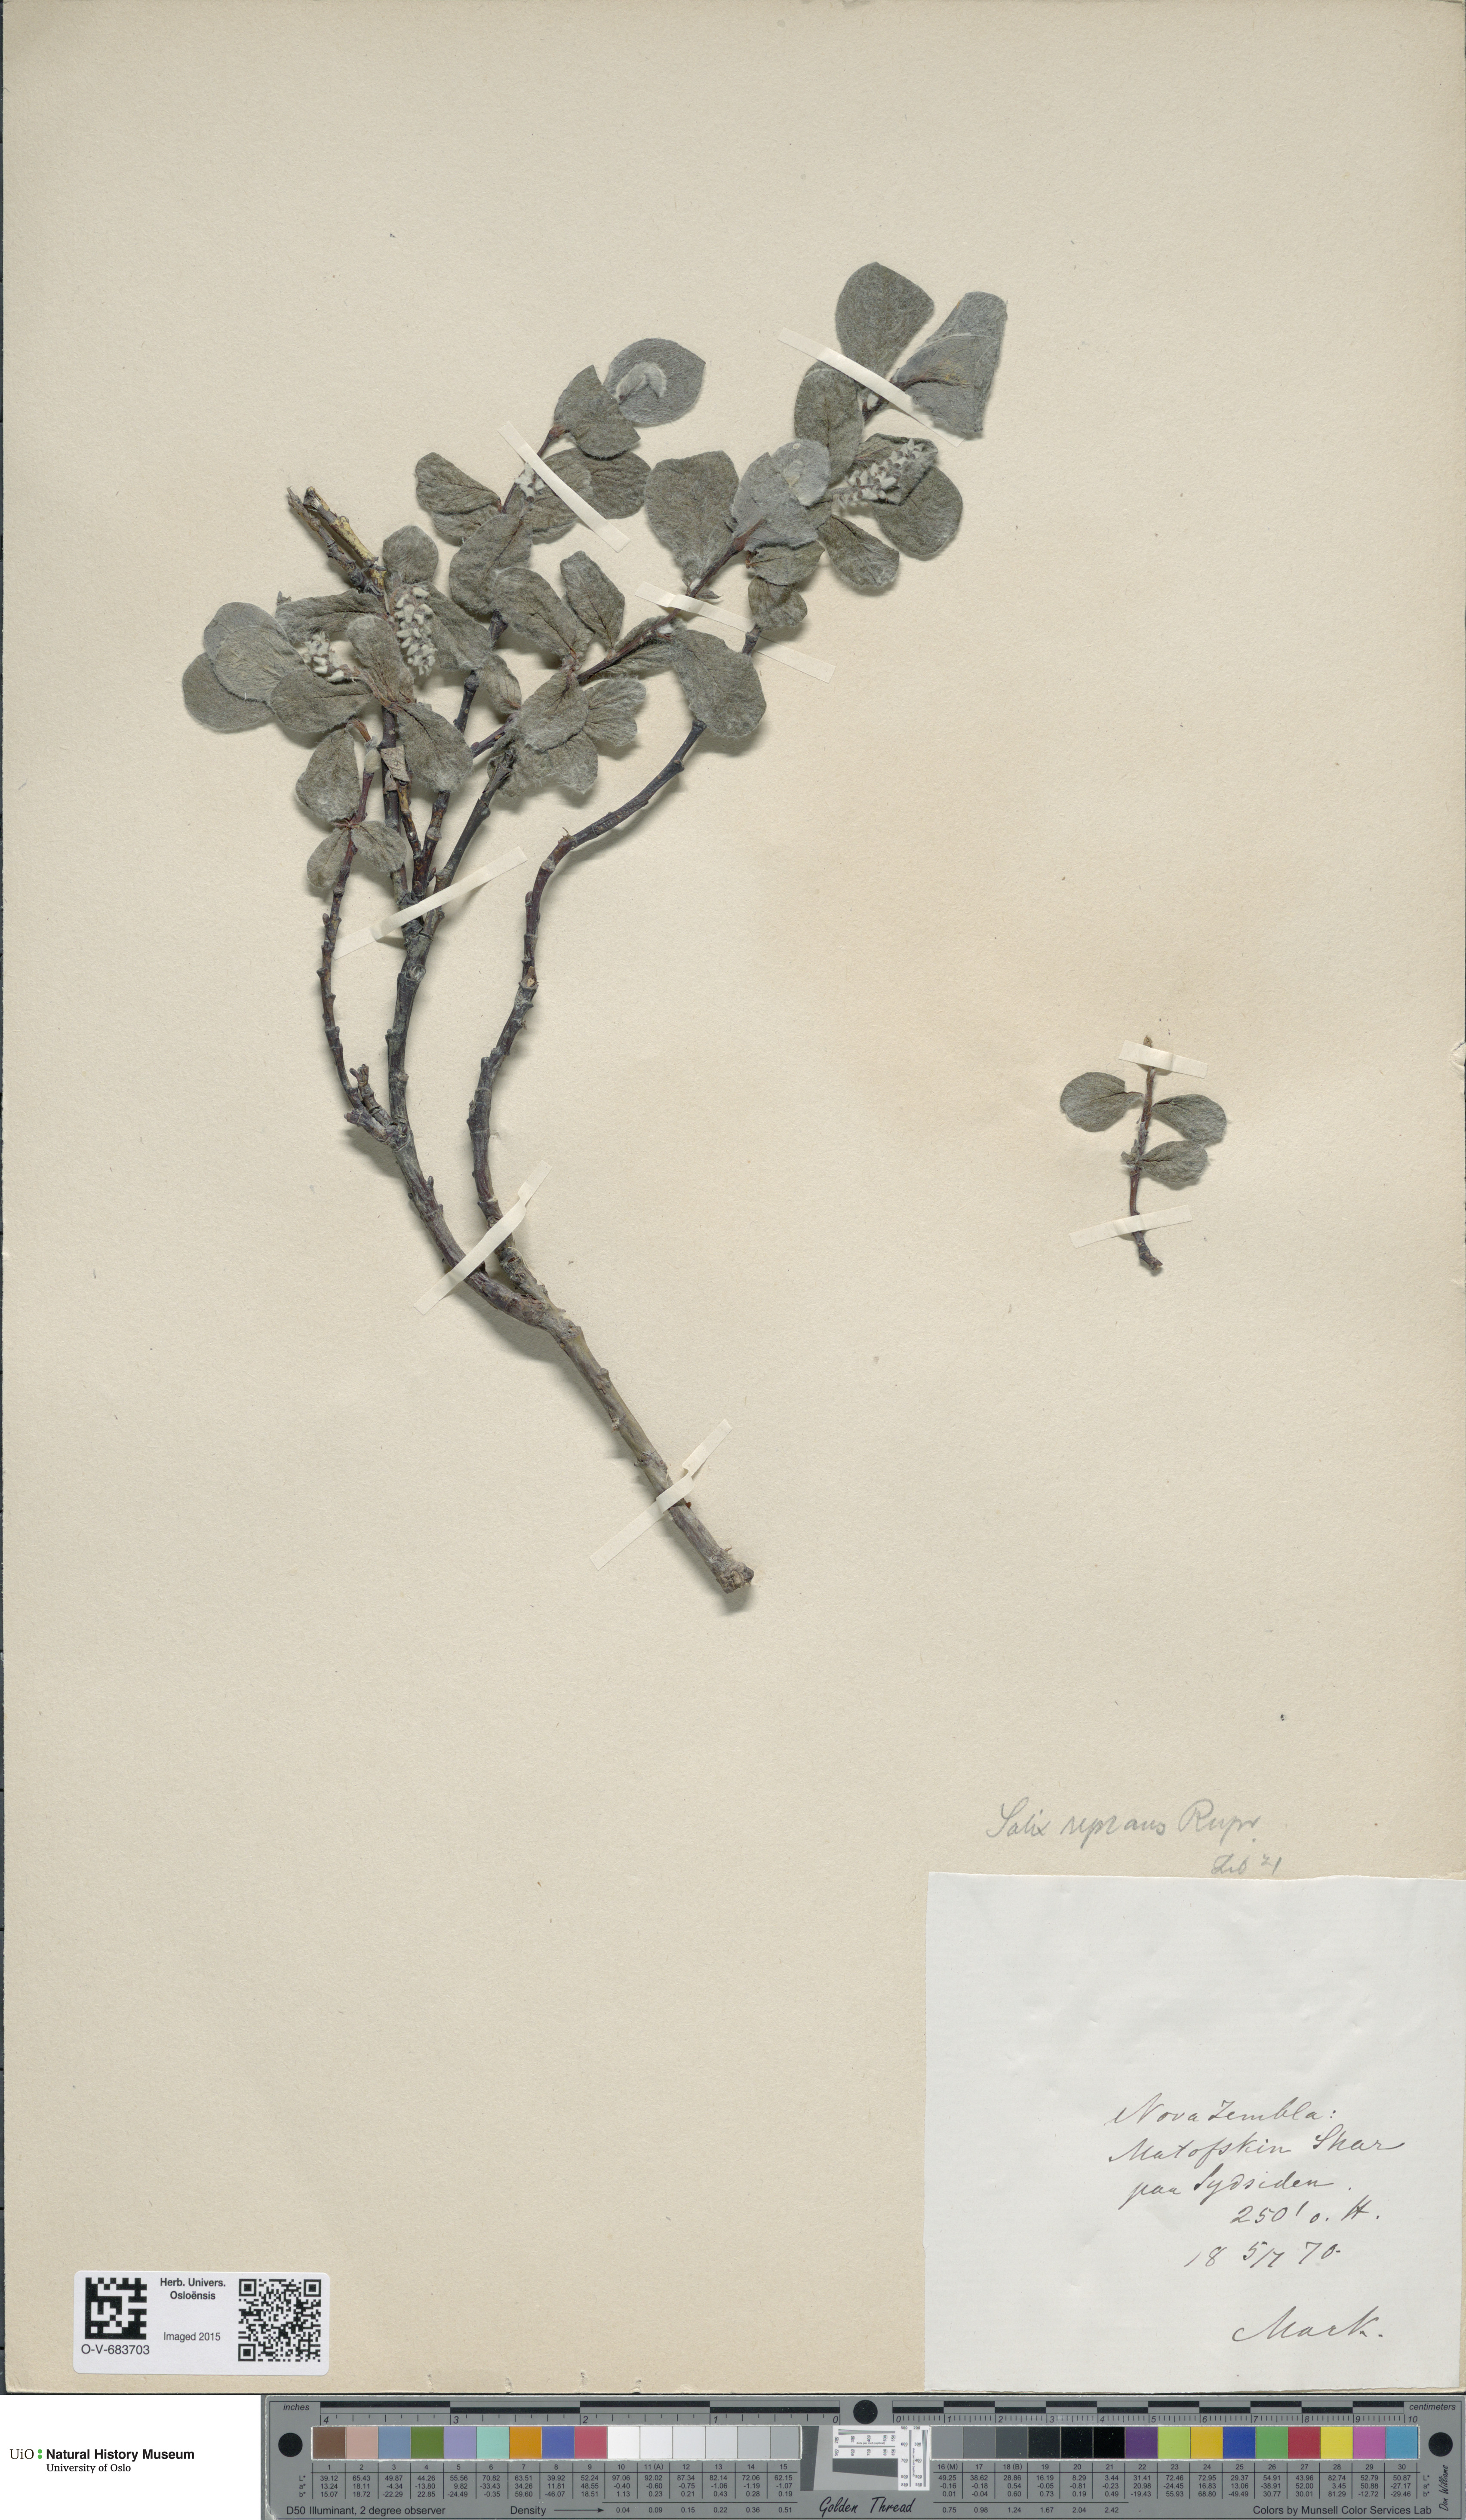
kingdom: Plantae
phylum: Tracheophyta
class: Magnoliopsida
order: Malpighiales
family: Salicaceae
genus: Salix
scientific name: Salix reptans
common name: Arctic creeping willow
